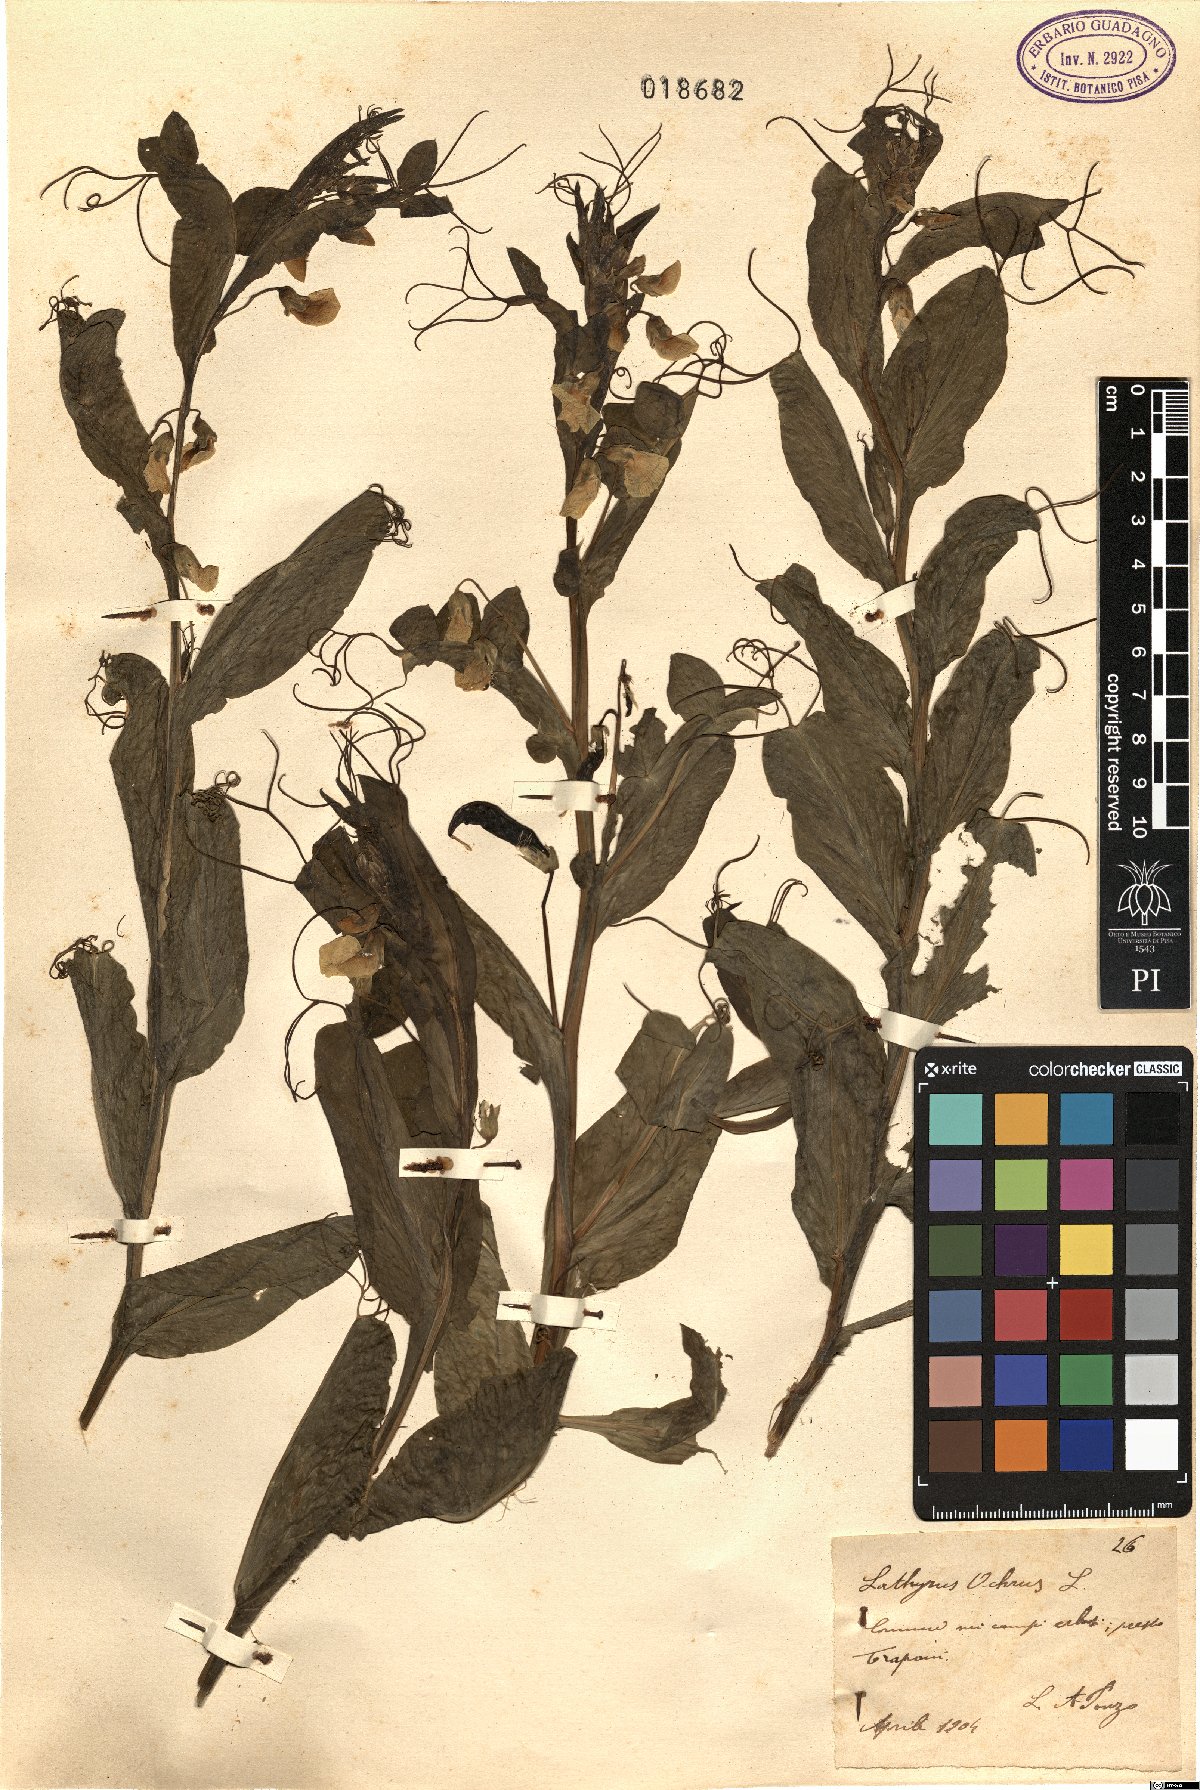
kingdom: Plantae
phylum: Tracheophyta
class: Magnoliopsida
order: Fabales
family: Fabaceae
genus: Lathyrus
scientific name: Lathyrus ochrus
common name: Winged vetchling
